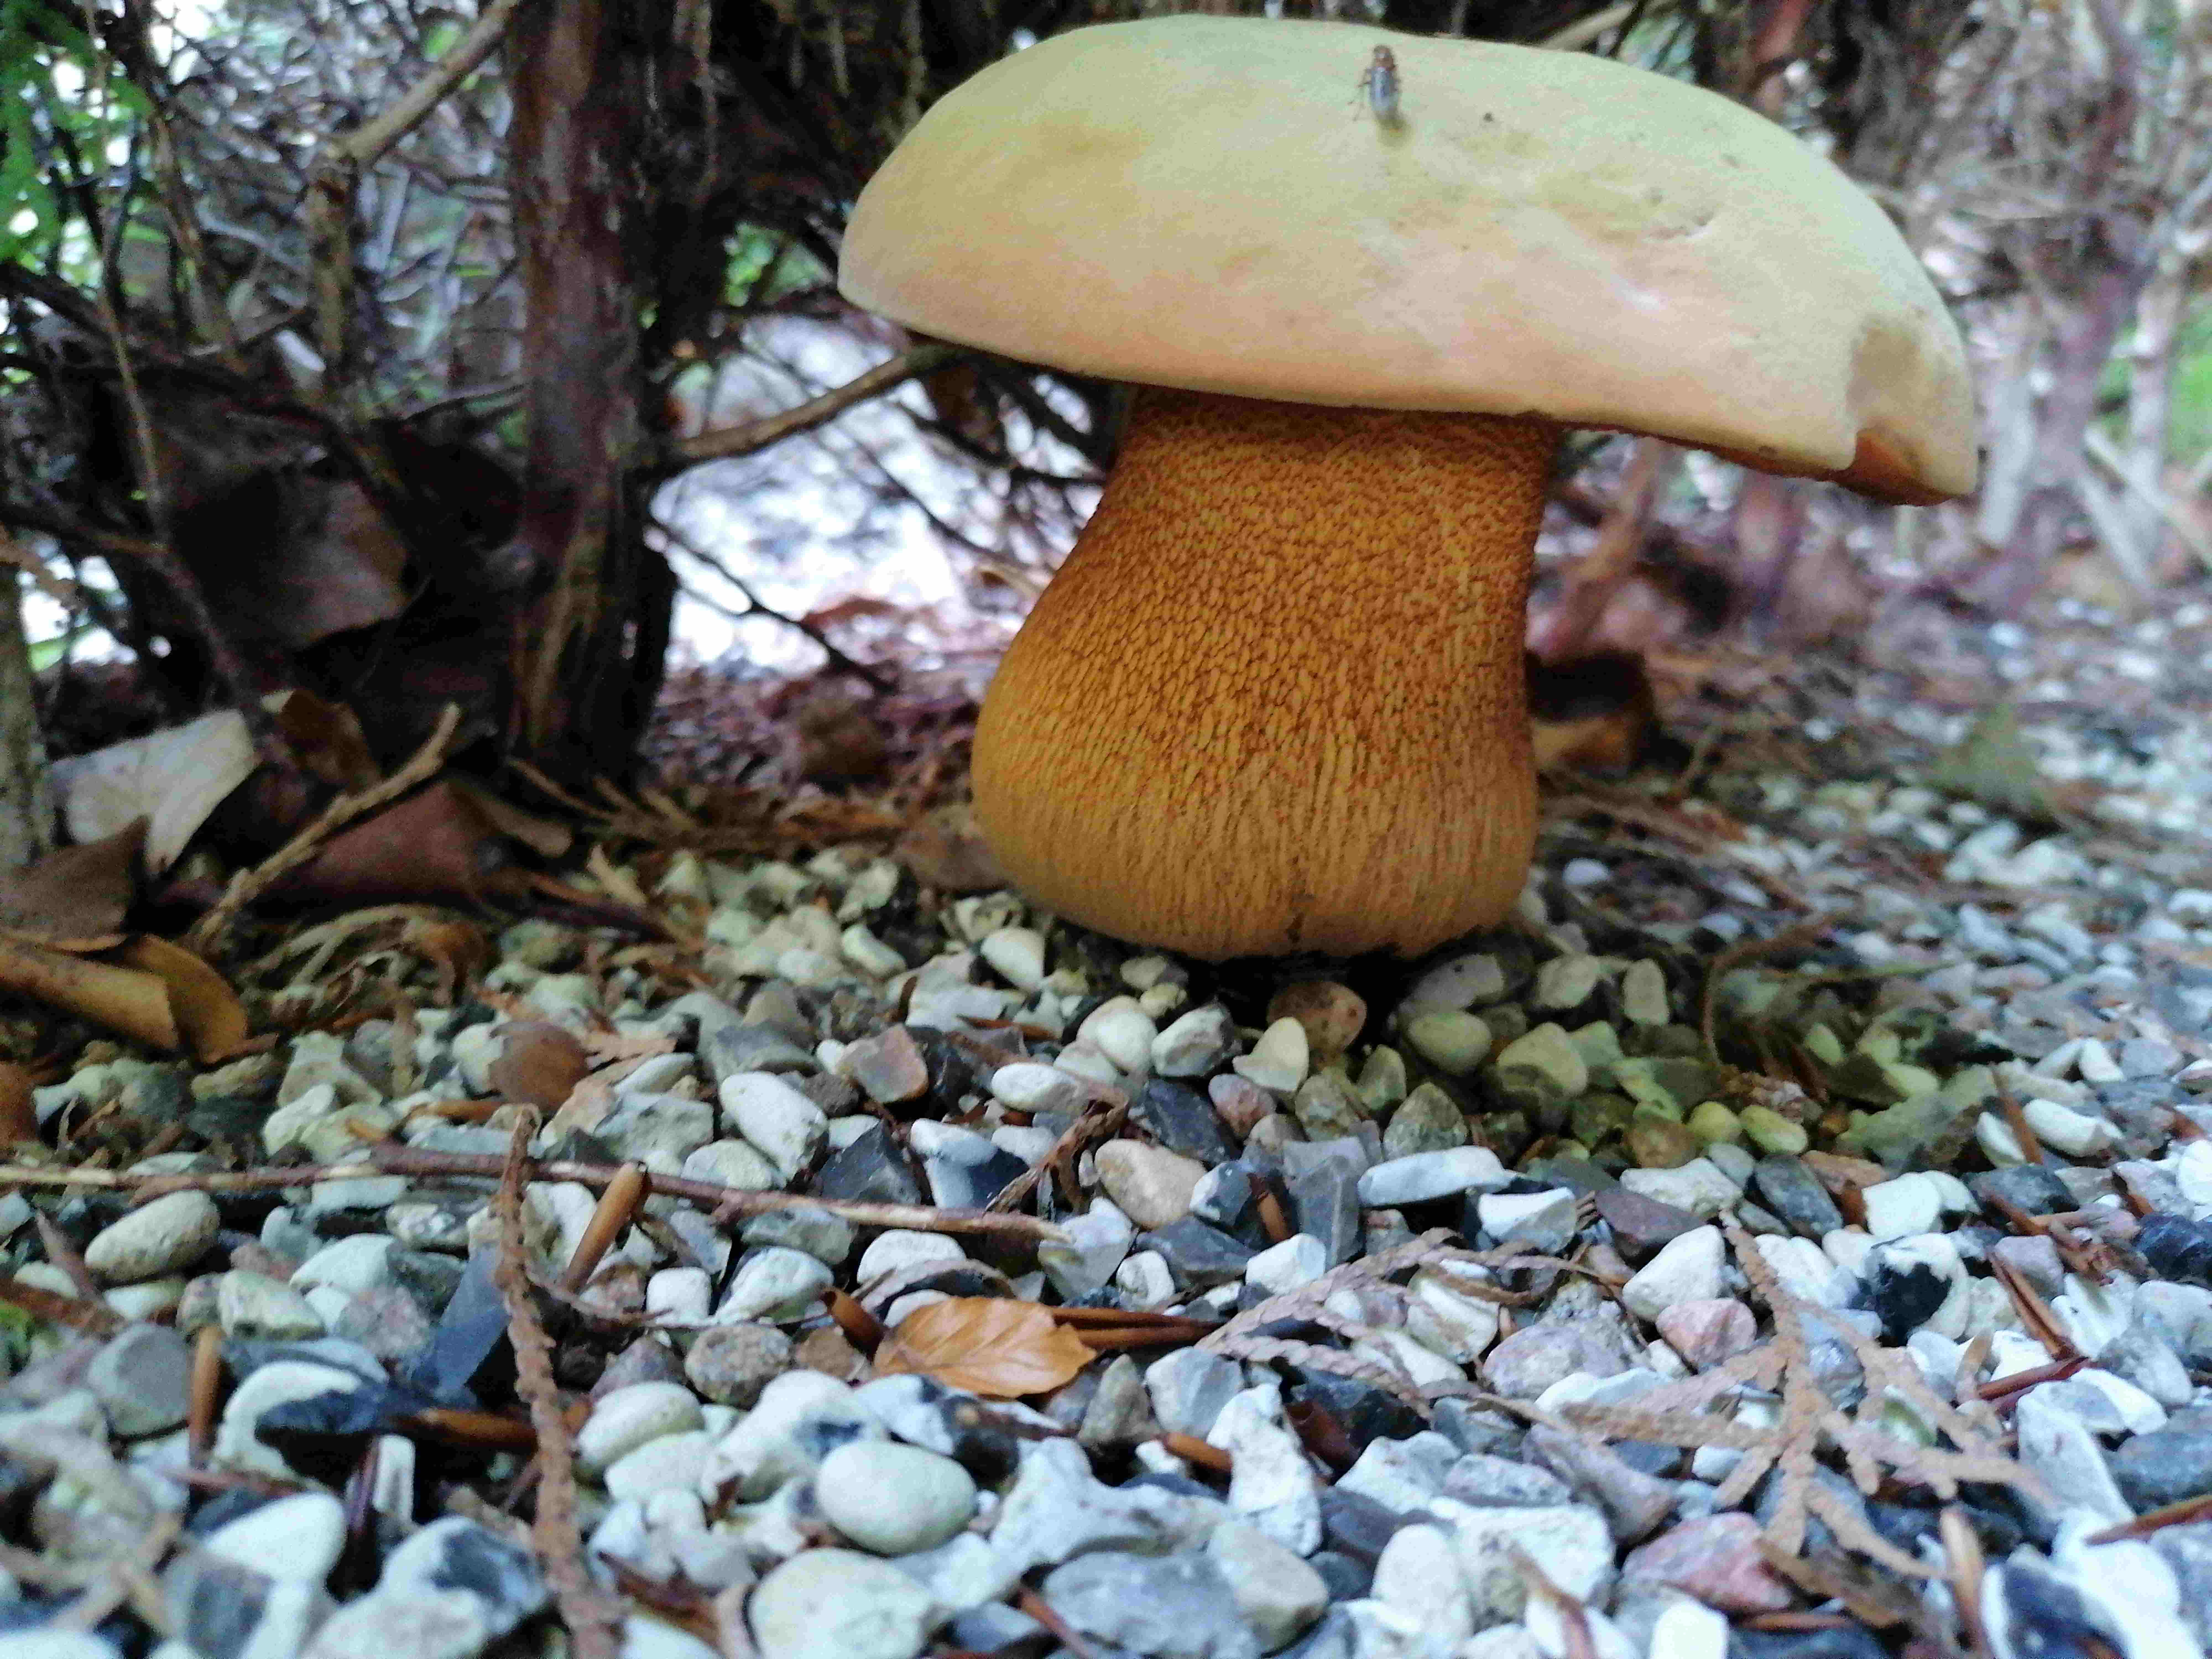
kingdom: Fungi
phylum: Basidiomycota
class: Agaricomycetes
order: Boletales
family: Boletaceae
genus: Suillellus
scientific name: Suillellus luridus
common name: netstokket indigorørhat
